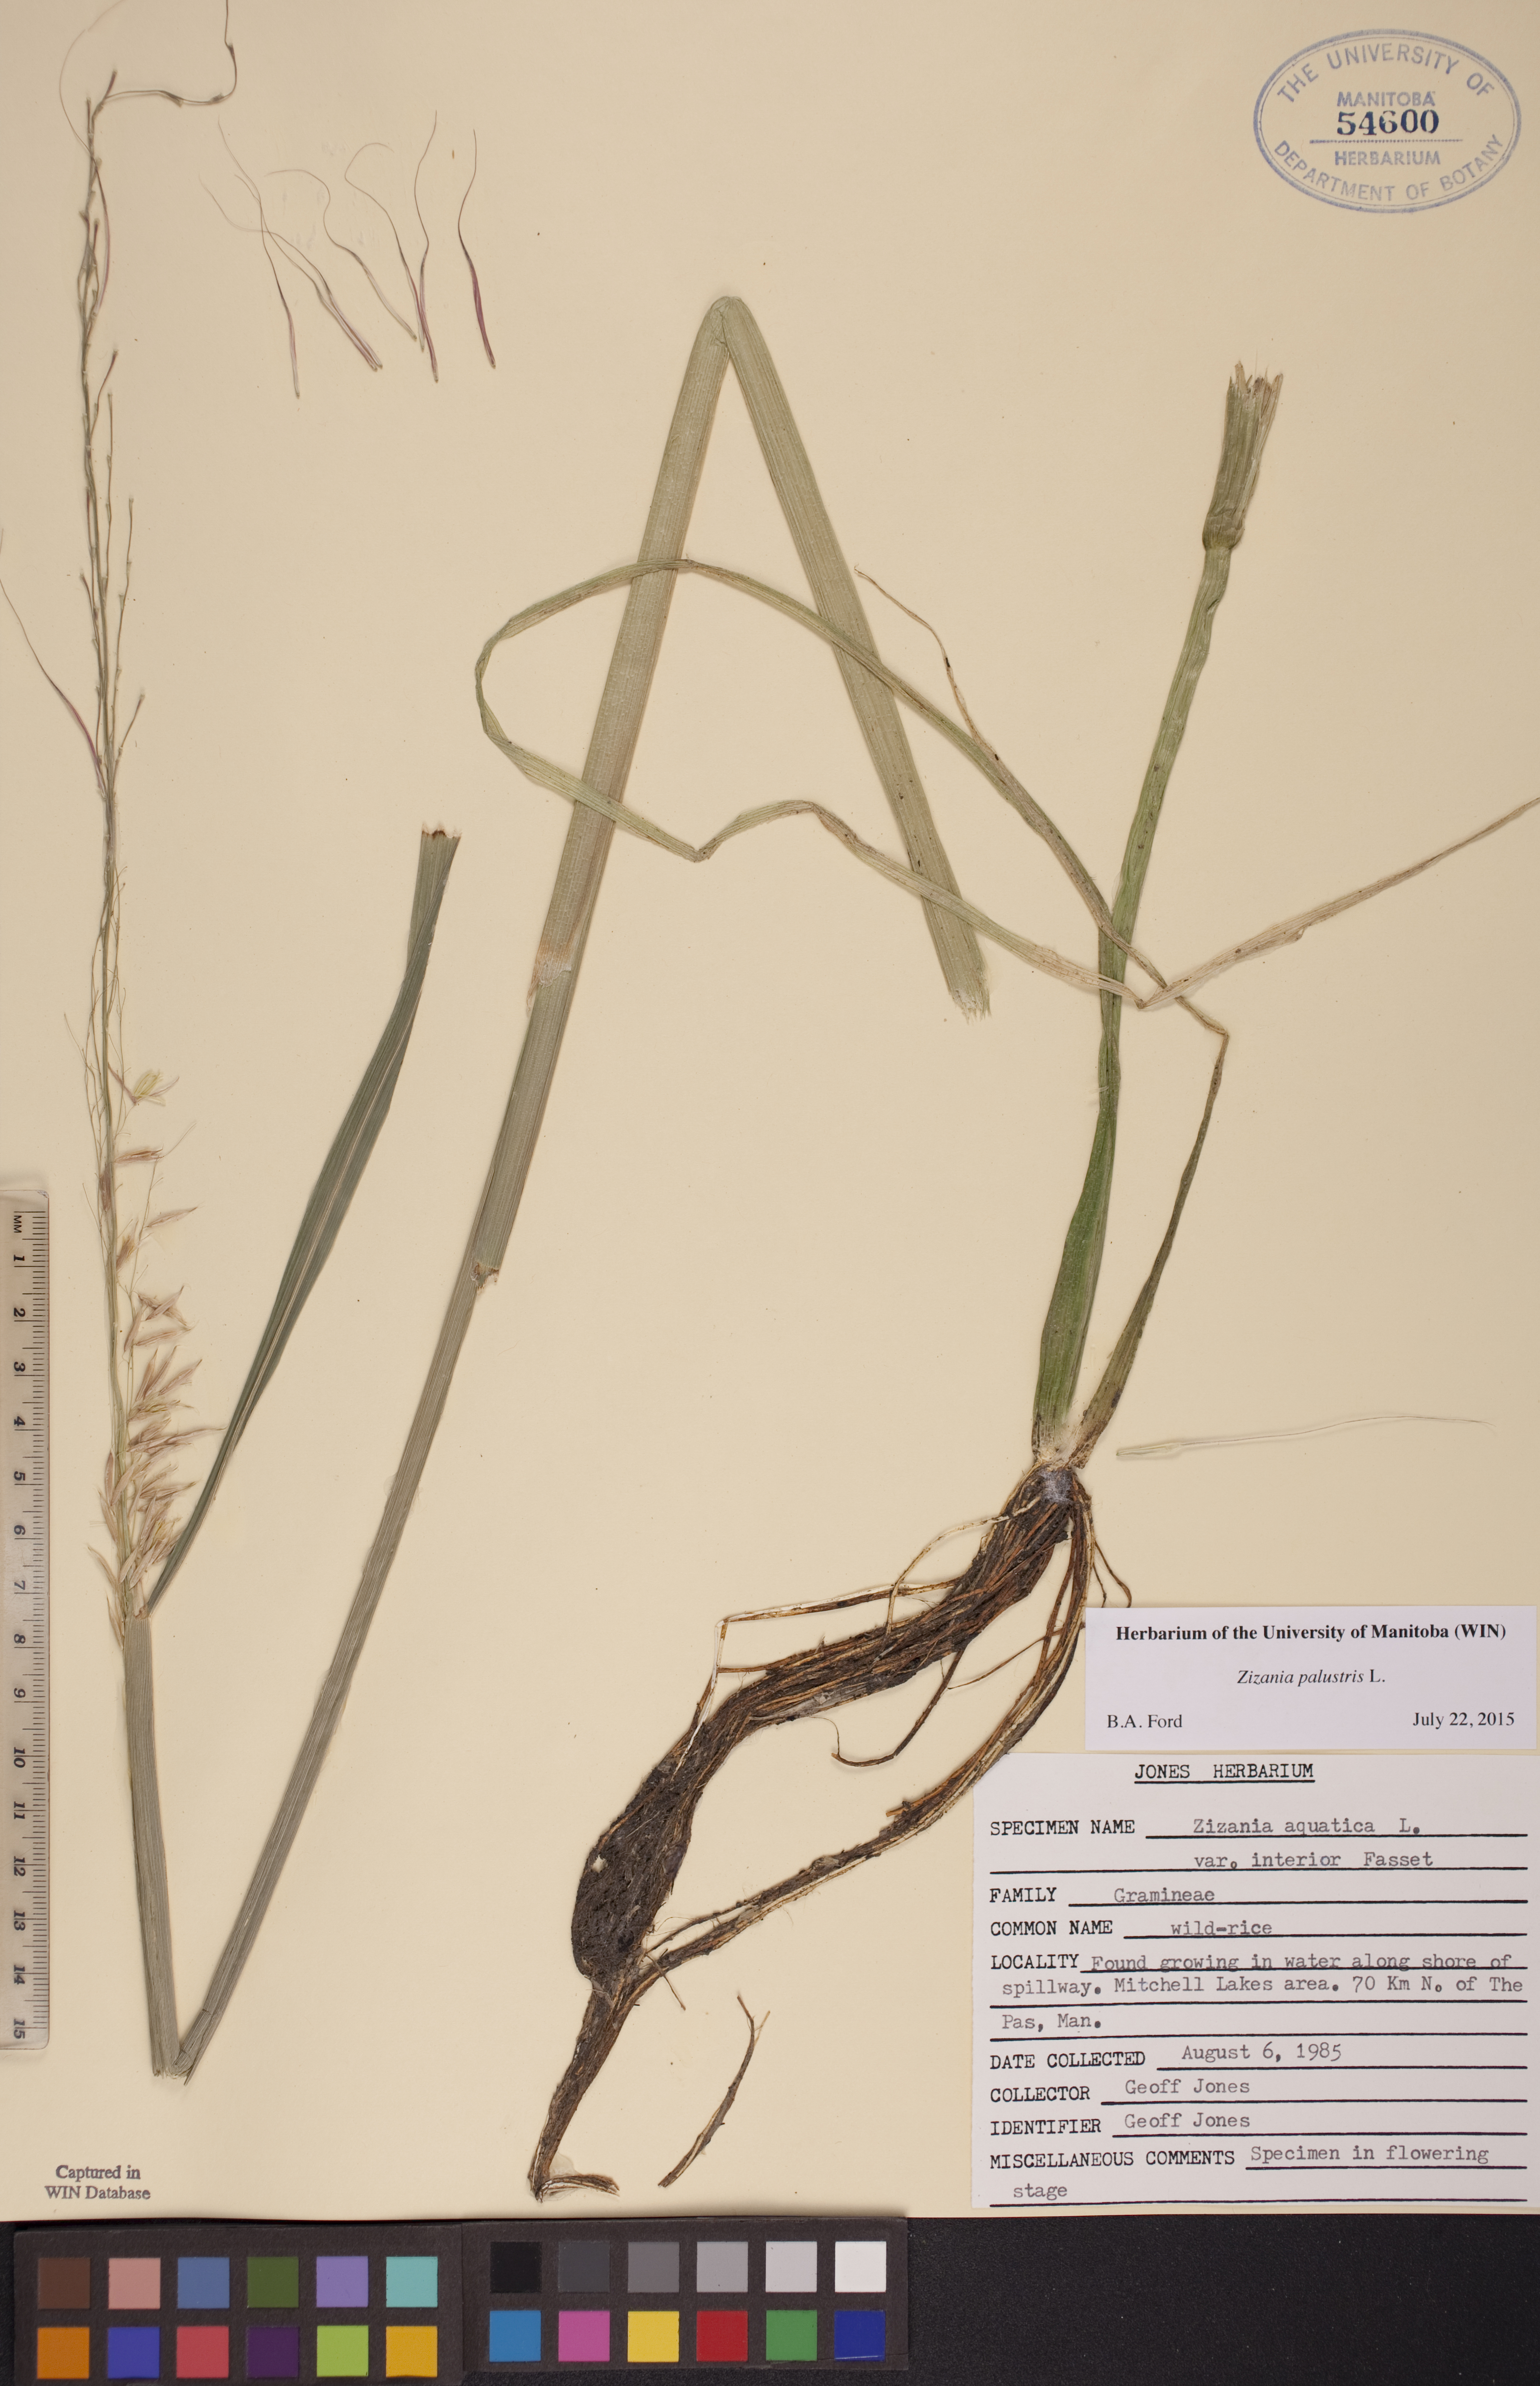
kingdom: Plantae
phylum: Tracheophyta
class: Liliopsida
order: Poales
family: Poaceae
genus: Zizania
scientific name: Zizania palustris
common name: Northern wild rice
